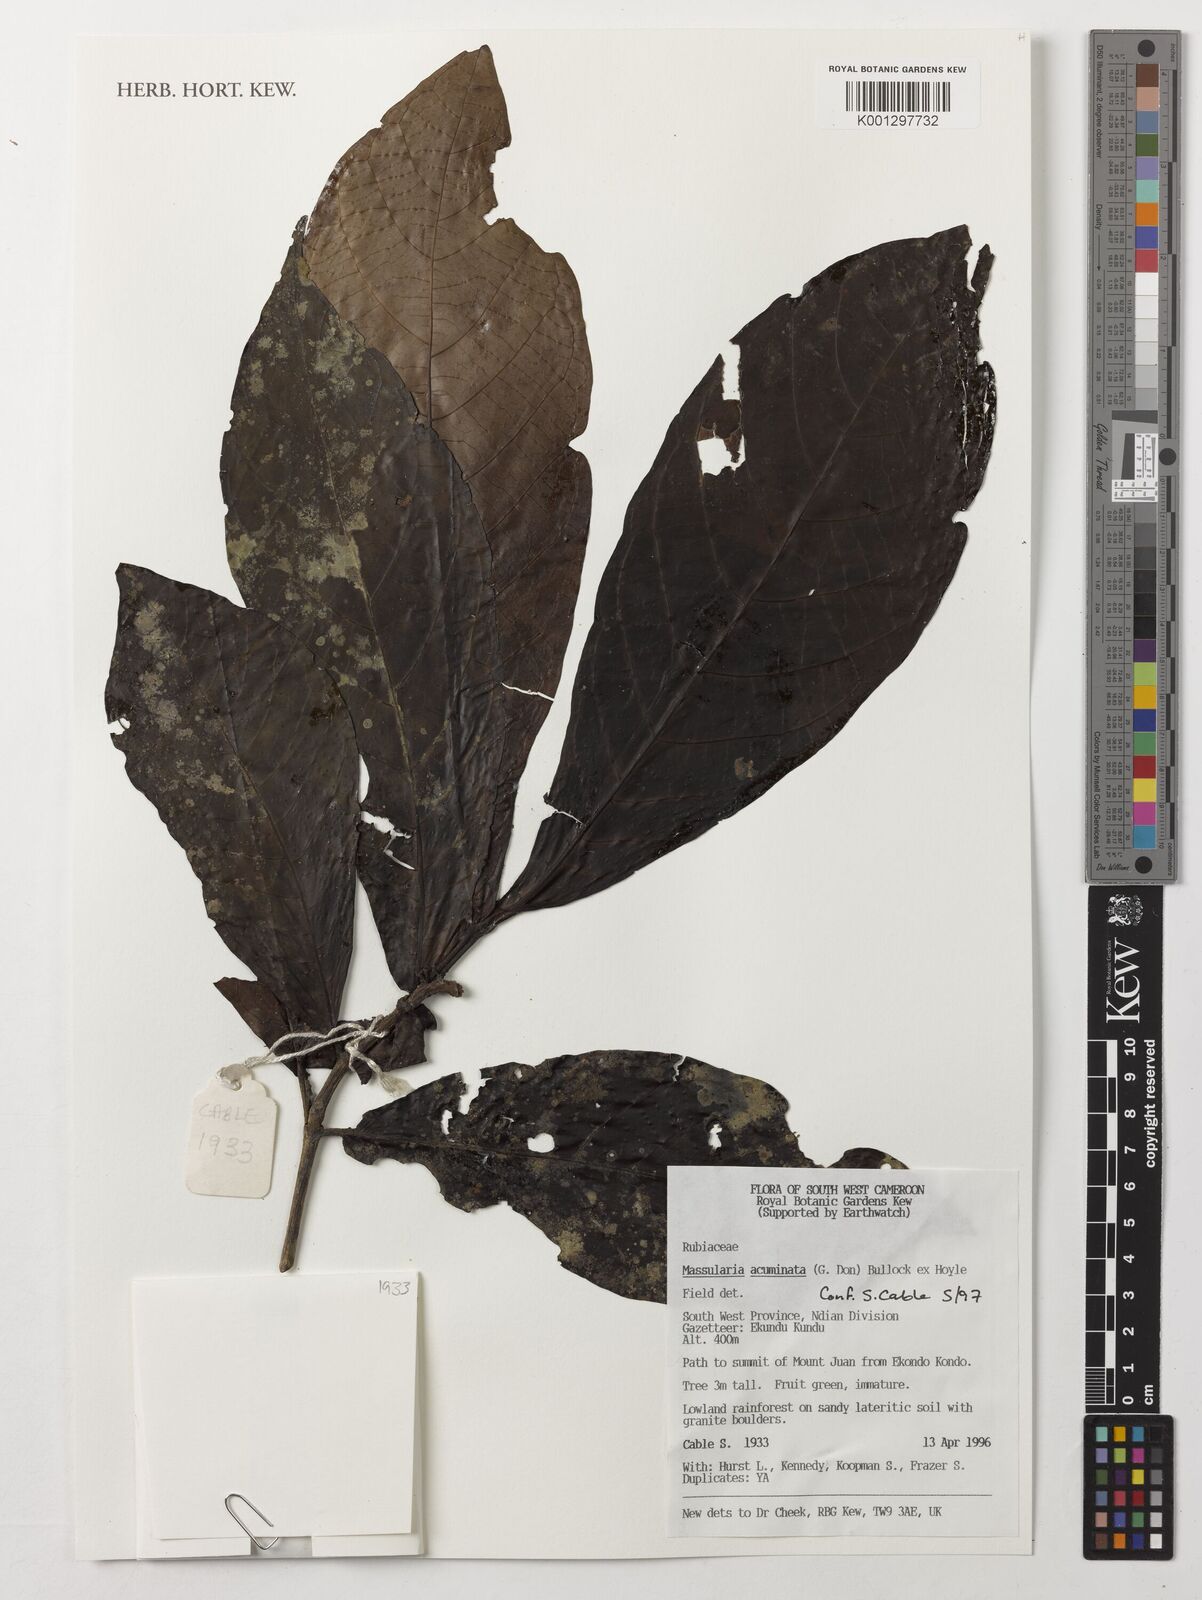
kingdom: Plantae
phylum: Tracheophyta
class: Magnoliopsida
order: Gentianales
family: Rubiaceae
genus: Massularia
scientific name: Massularia acuminata
